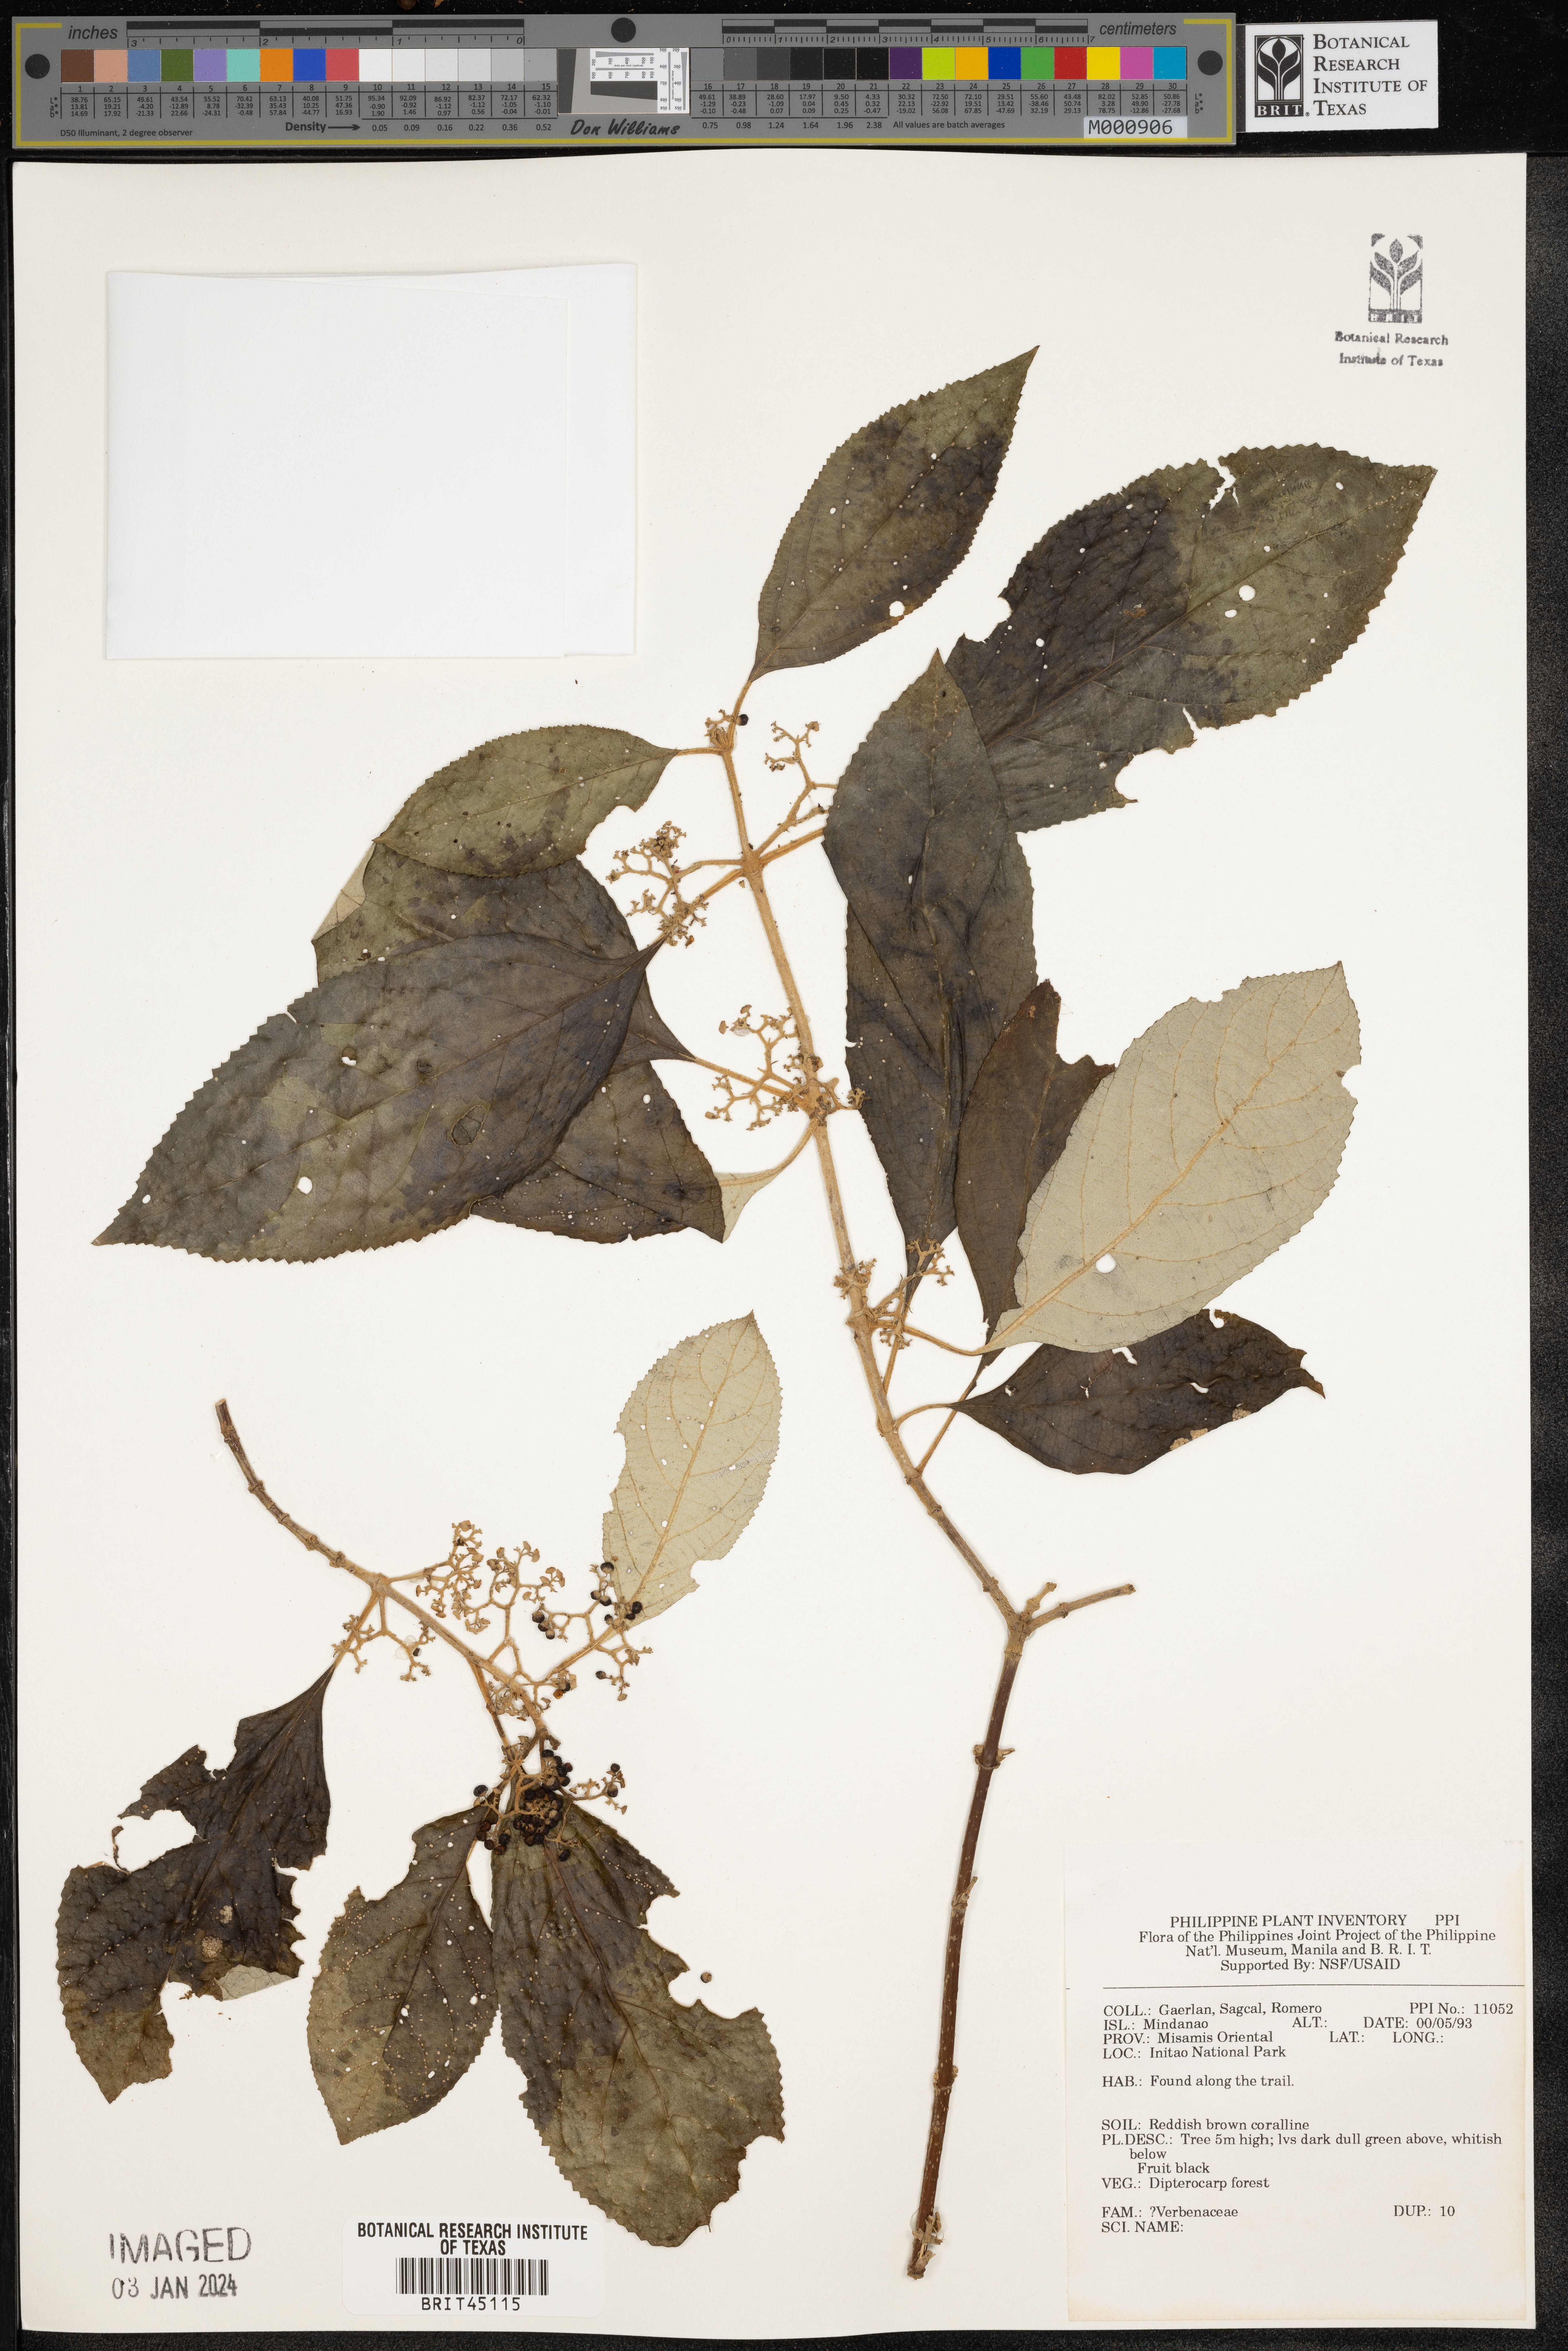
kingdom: Plantae
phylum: Tracheophyta
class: Magnoliopsida
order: Lamiales
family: Verbenaceae
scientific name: Verbenaceae
